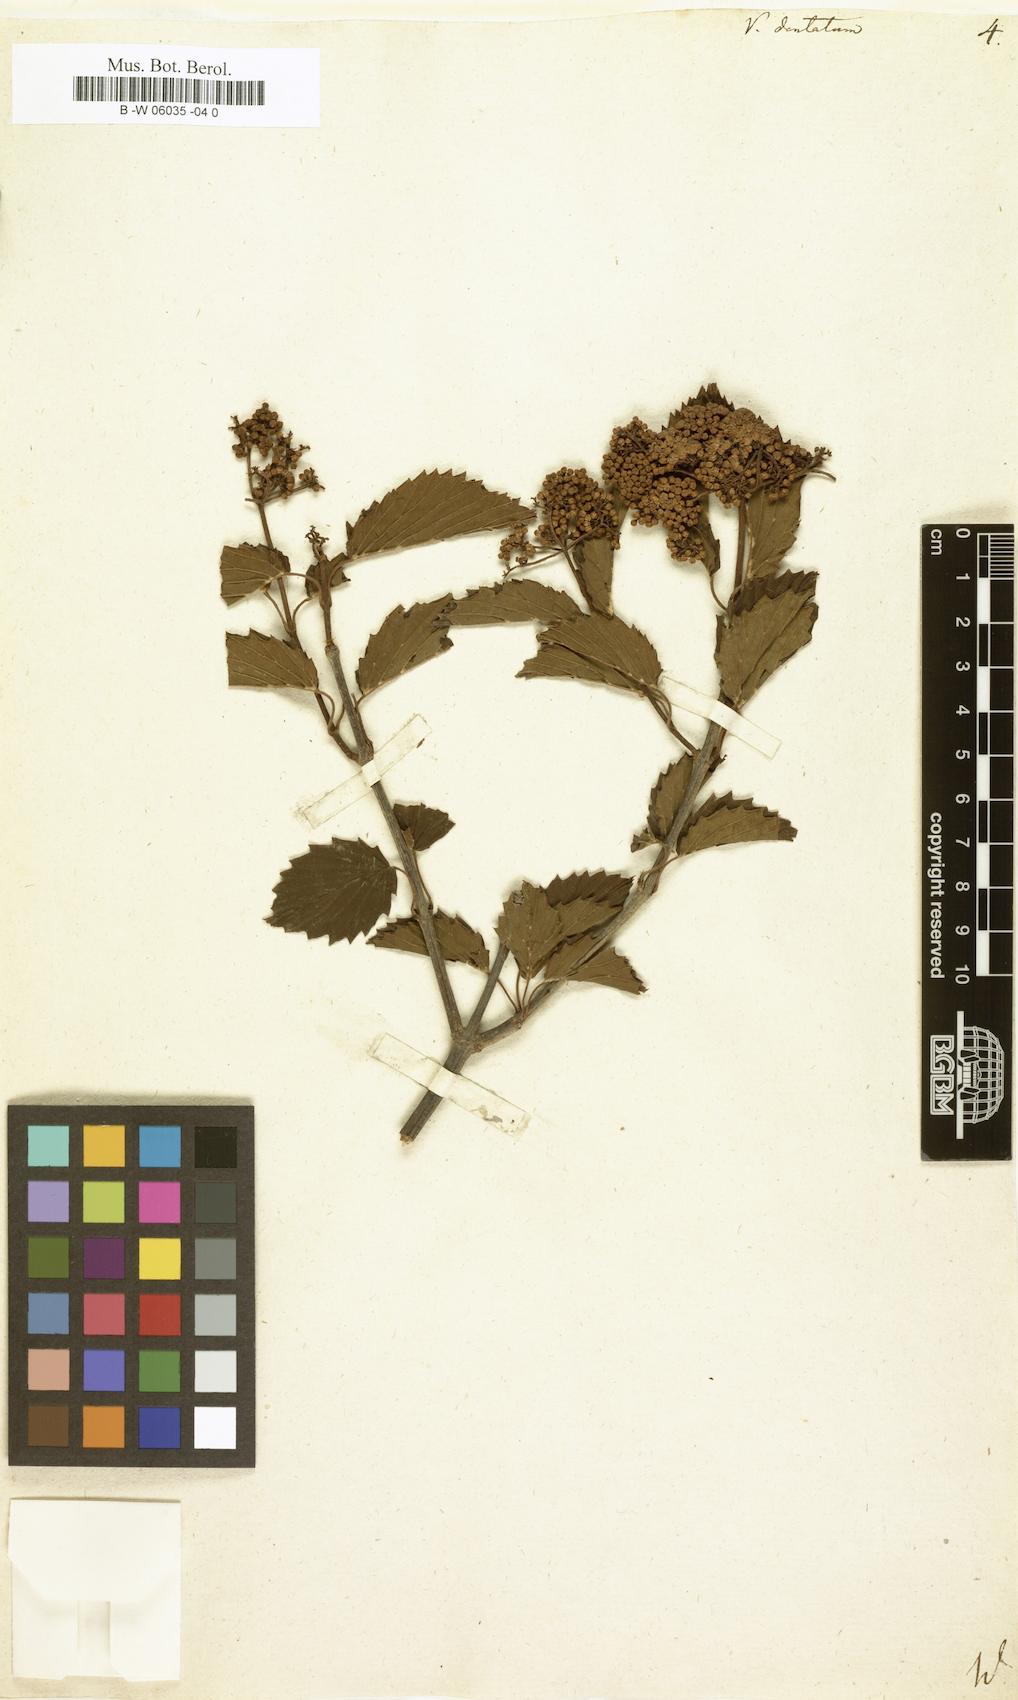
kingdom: Plantae
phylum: Tracheophyta
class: Magnoliopsida
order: Dipsacales
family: Viburnaceae
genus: Viburnum
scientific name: Viburnum dentatum
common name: Arrow-wood
